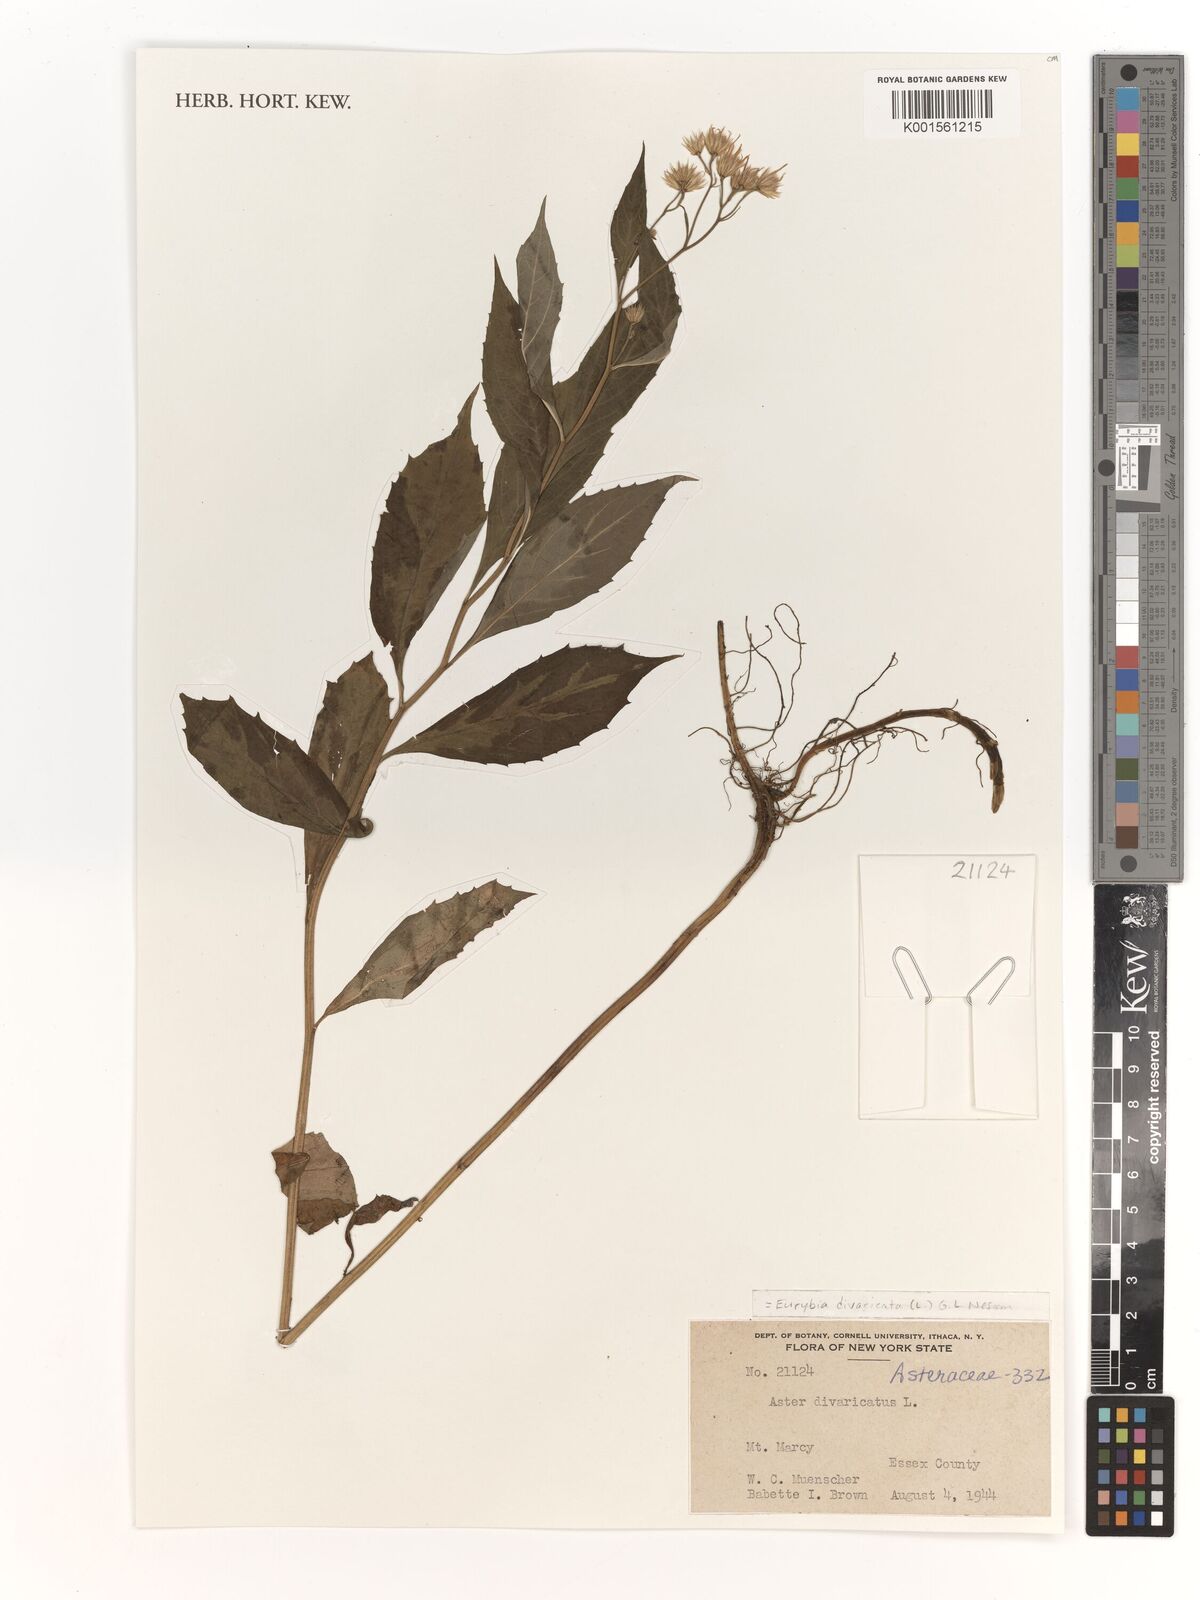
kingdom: Plantae
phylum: Tracheophyta
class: Magnoliopsida
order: Asterales
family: Asteraceae
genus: Eurybia
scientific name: Eurybia divaricata
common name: White wood aster
